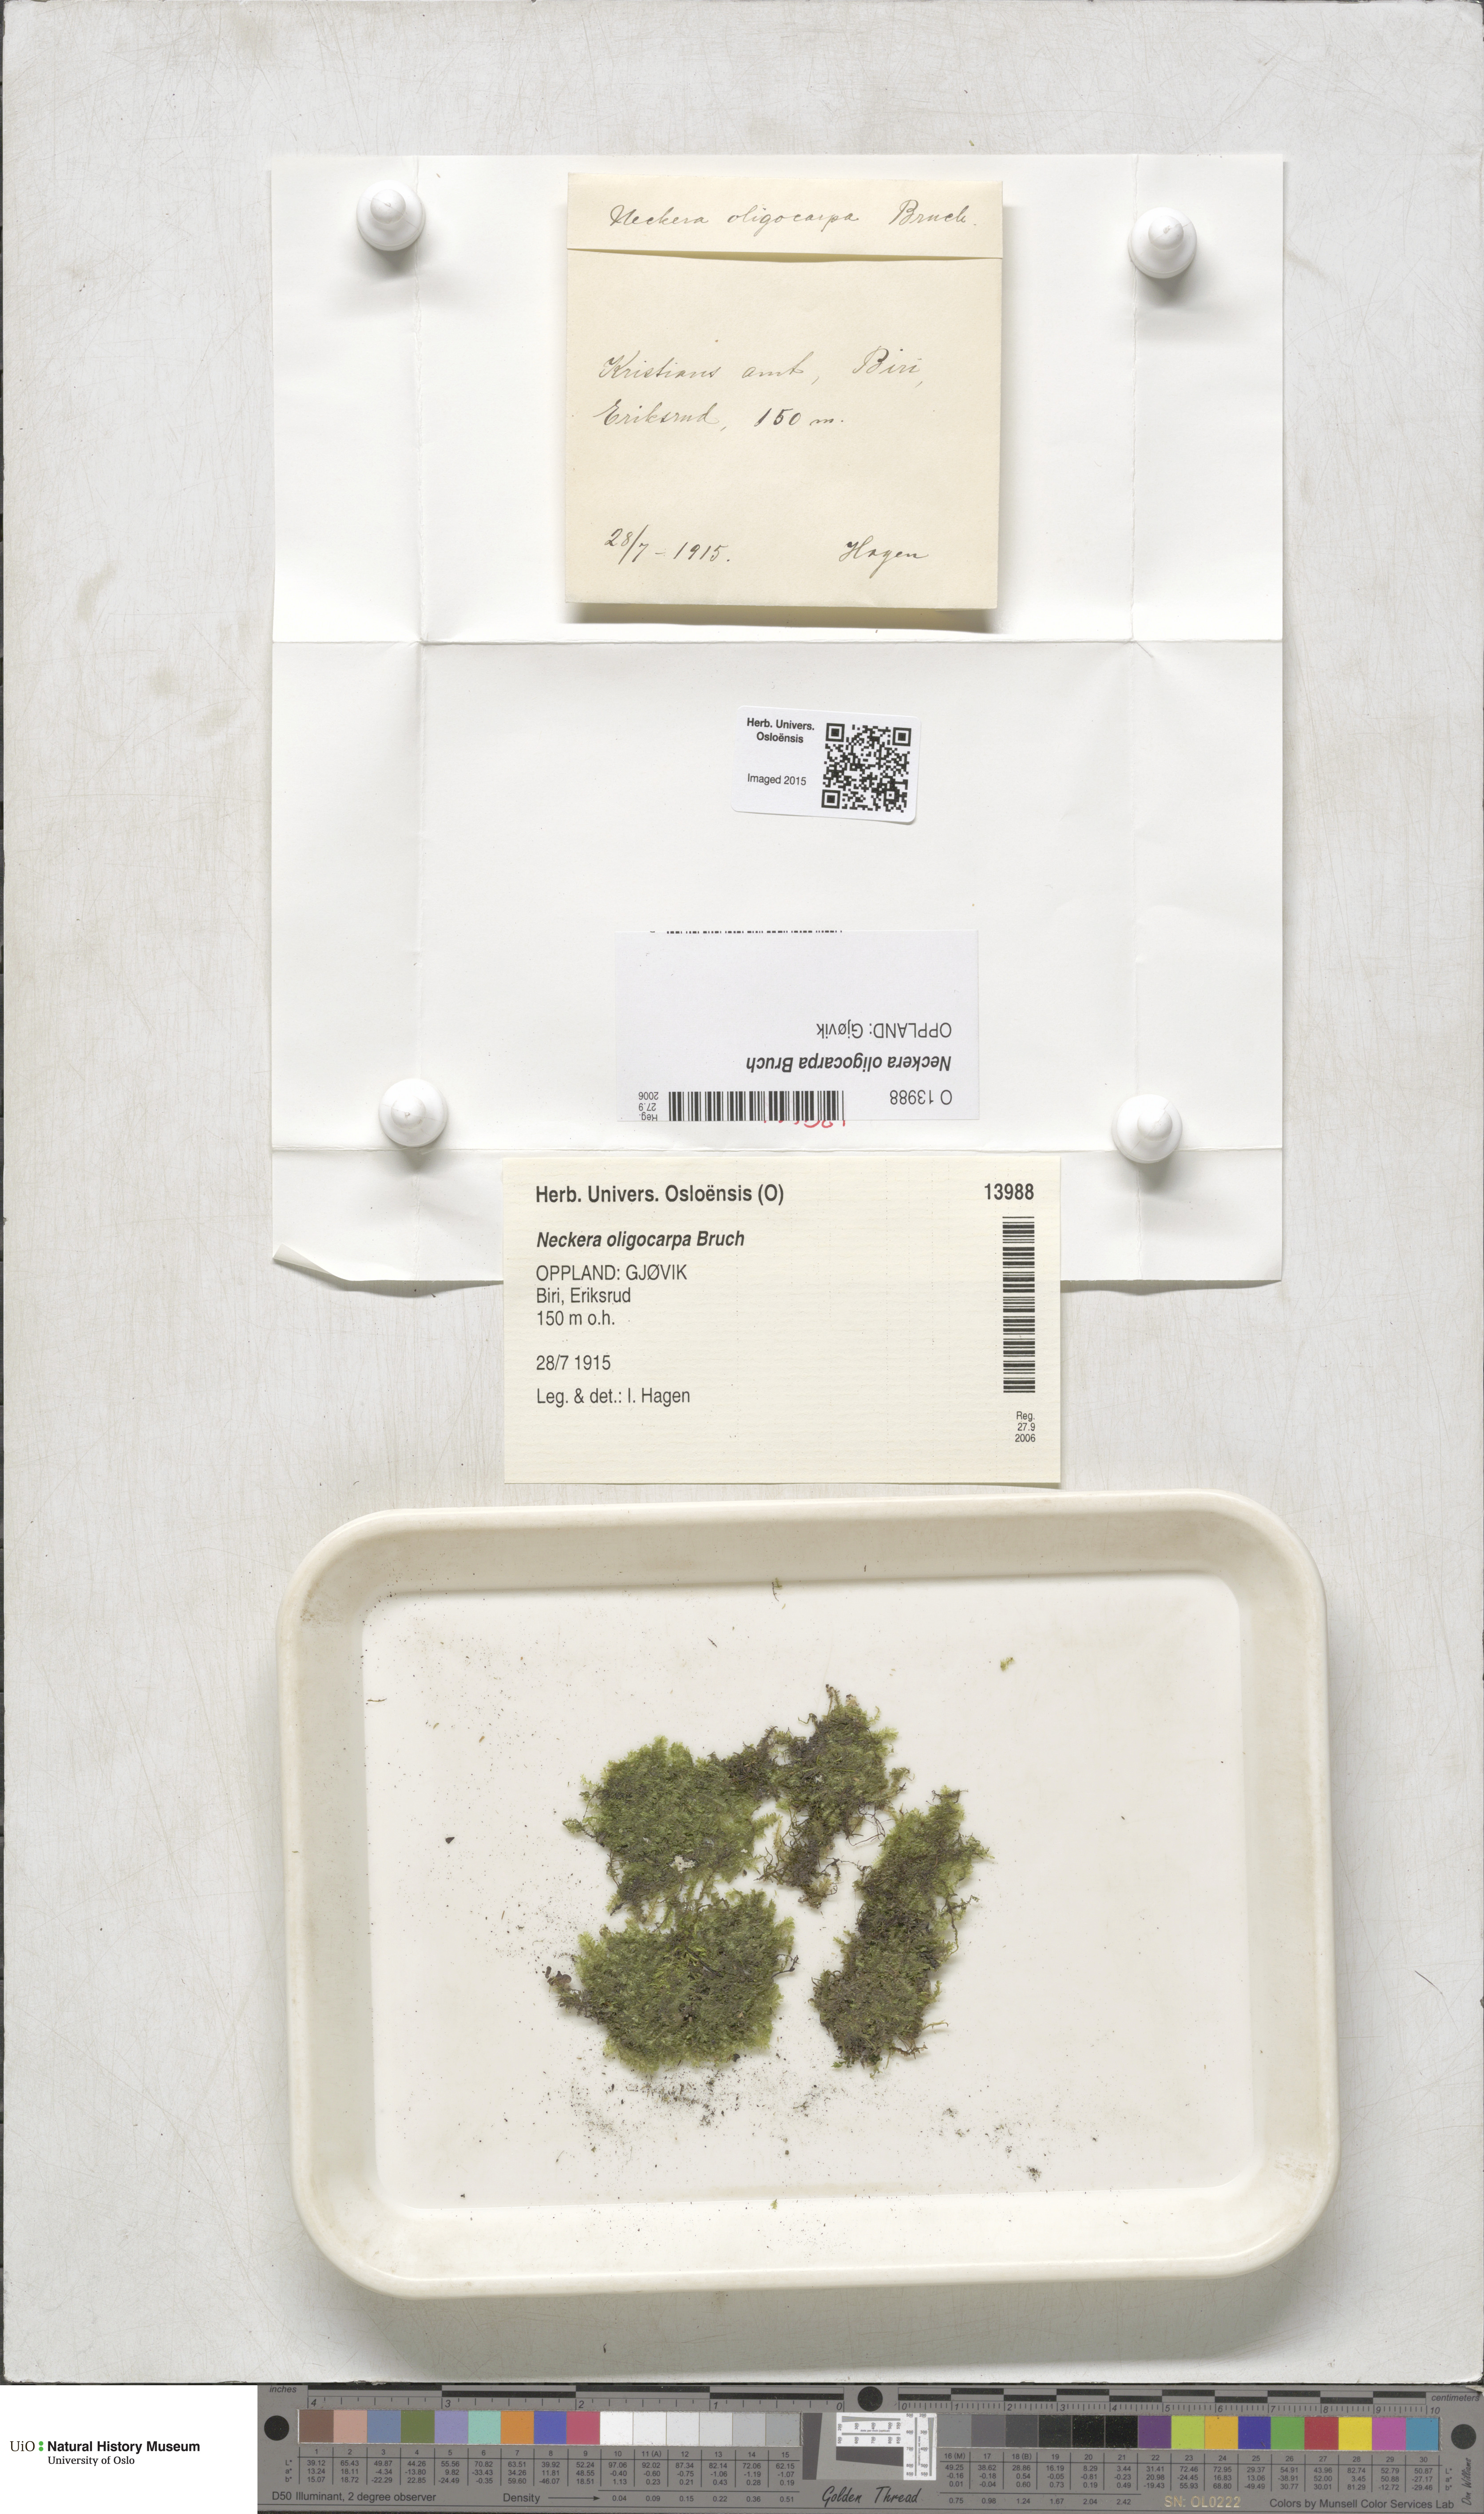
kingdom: Plantae
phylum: Bryophyta
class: Bryopsida
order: Hypnales
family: Neckeraceae
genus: Neckera
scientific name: Neckera oligocarpa
